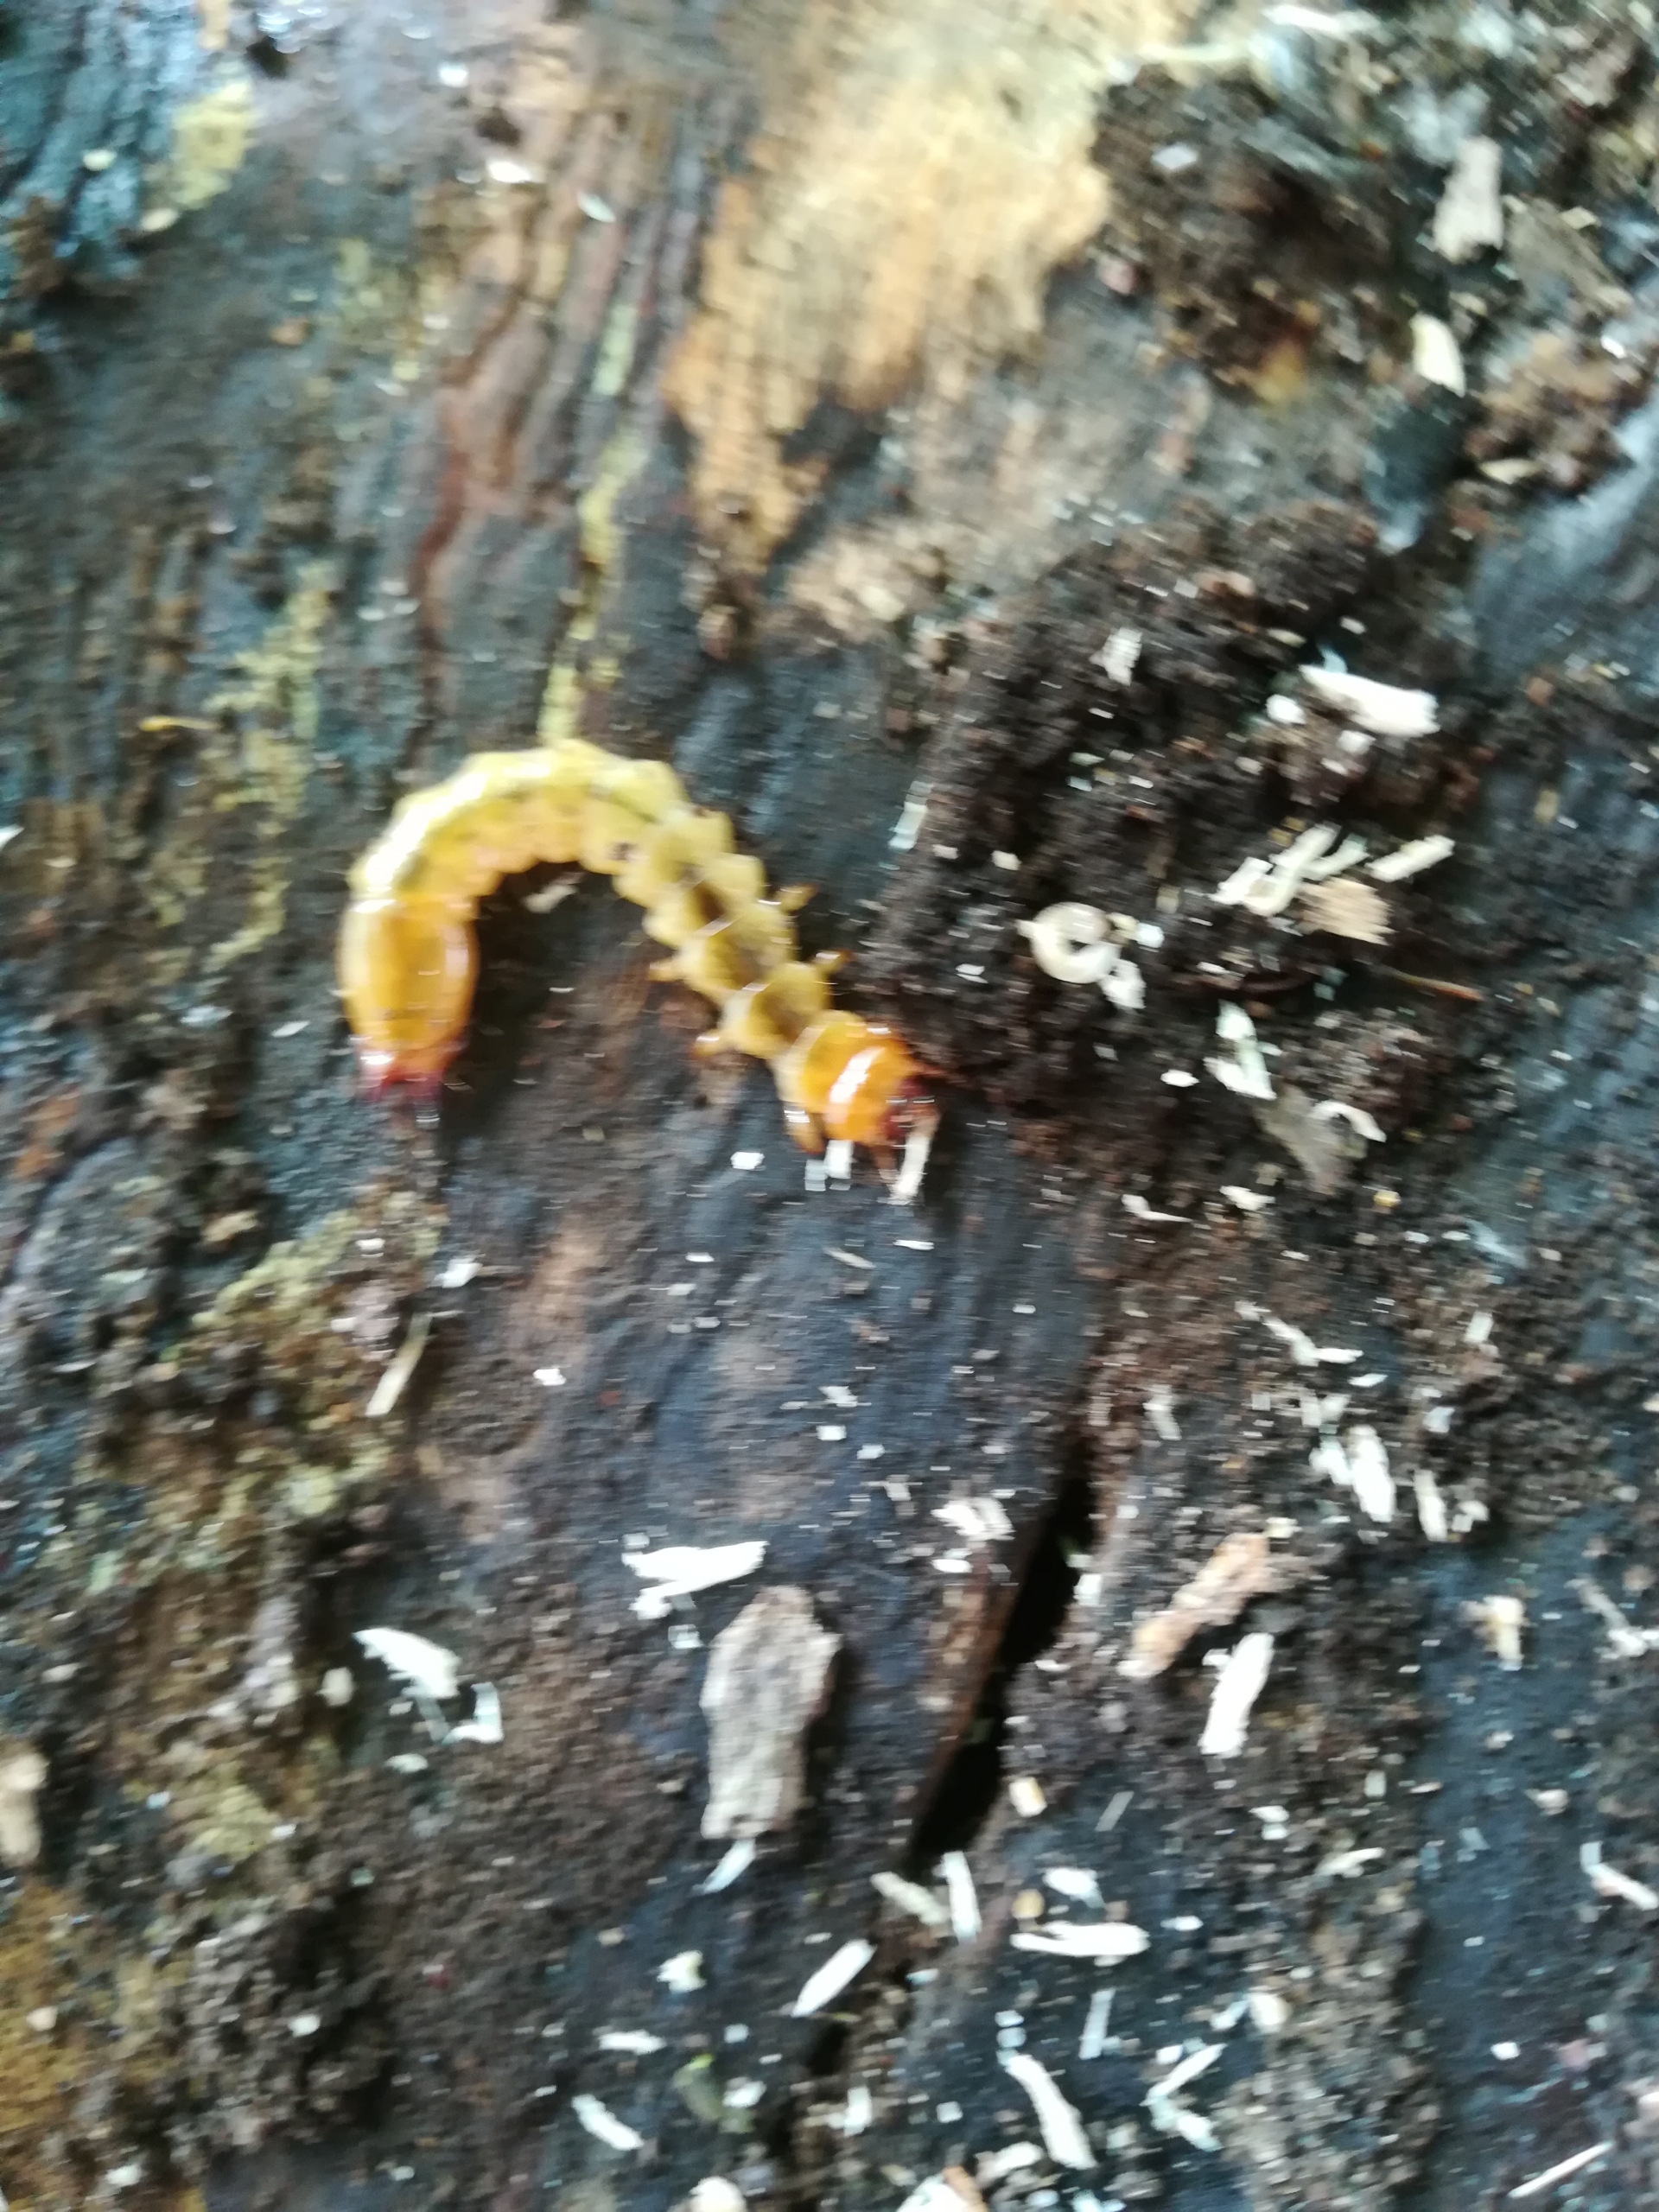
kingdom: Animalia
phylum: Arthropoda
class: Insecta
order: Coleoptera
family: Pyrochroidae
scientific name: Pyrochroidae
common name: Kardinalbiller
